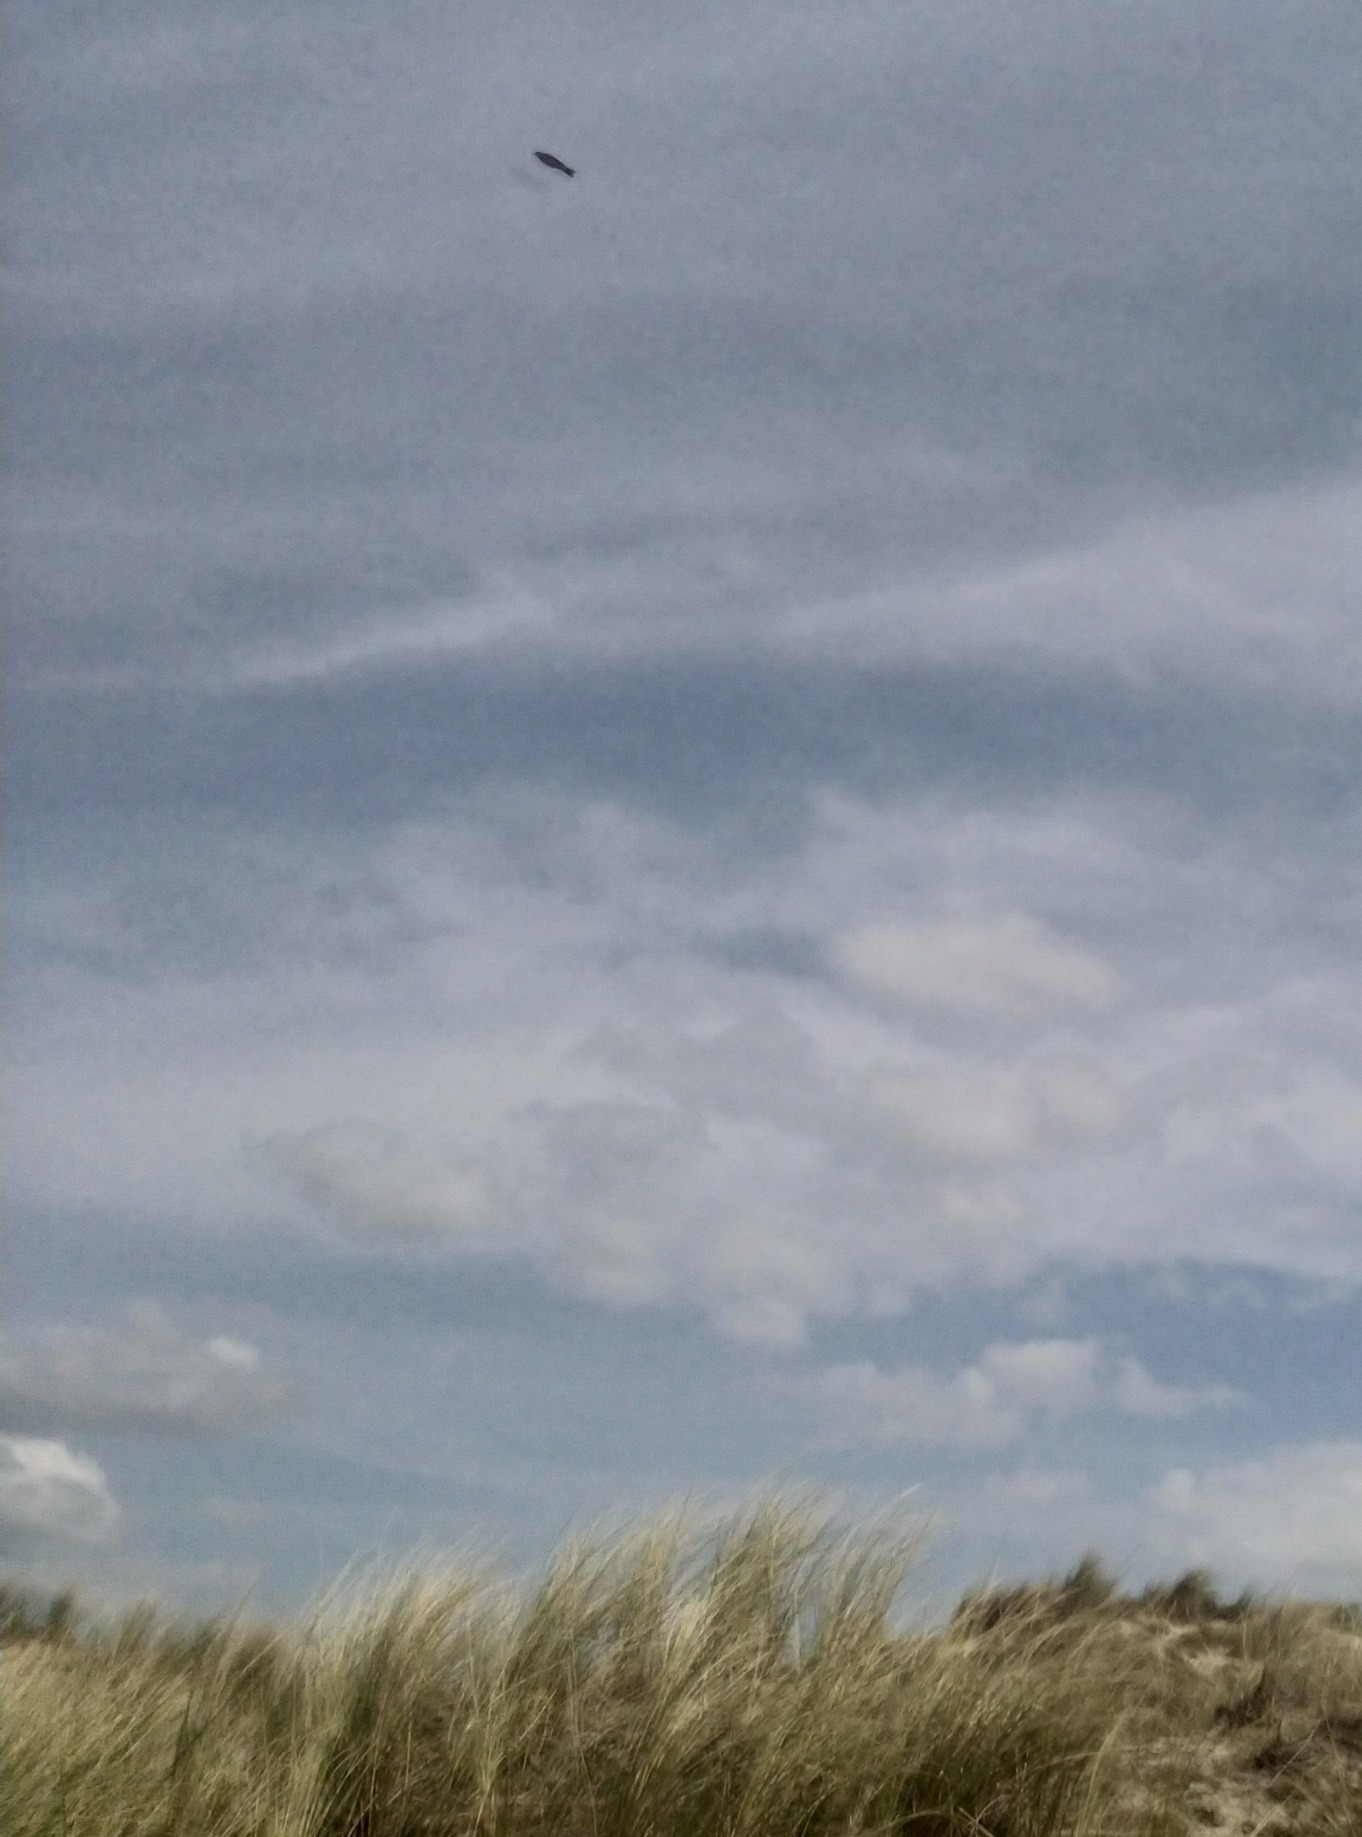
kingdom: Animalia
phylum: Chordata
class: Aves
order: Passeriformes
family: Alaudidae
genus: Alauda
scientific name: Alauda arvensis
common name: Sanglærke
